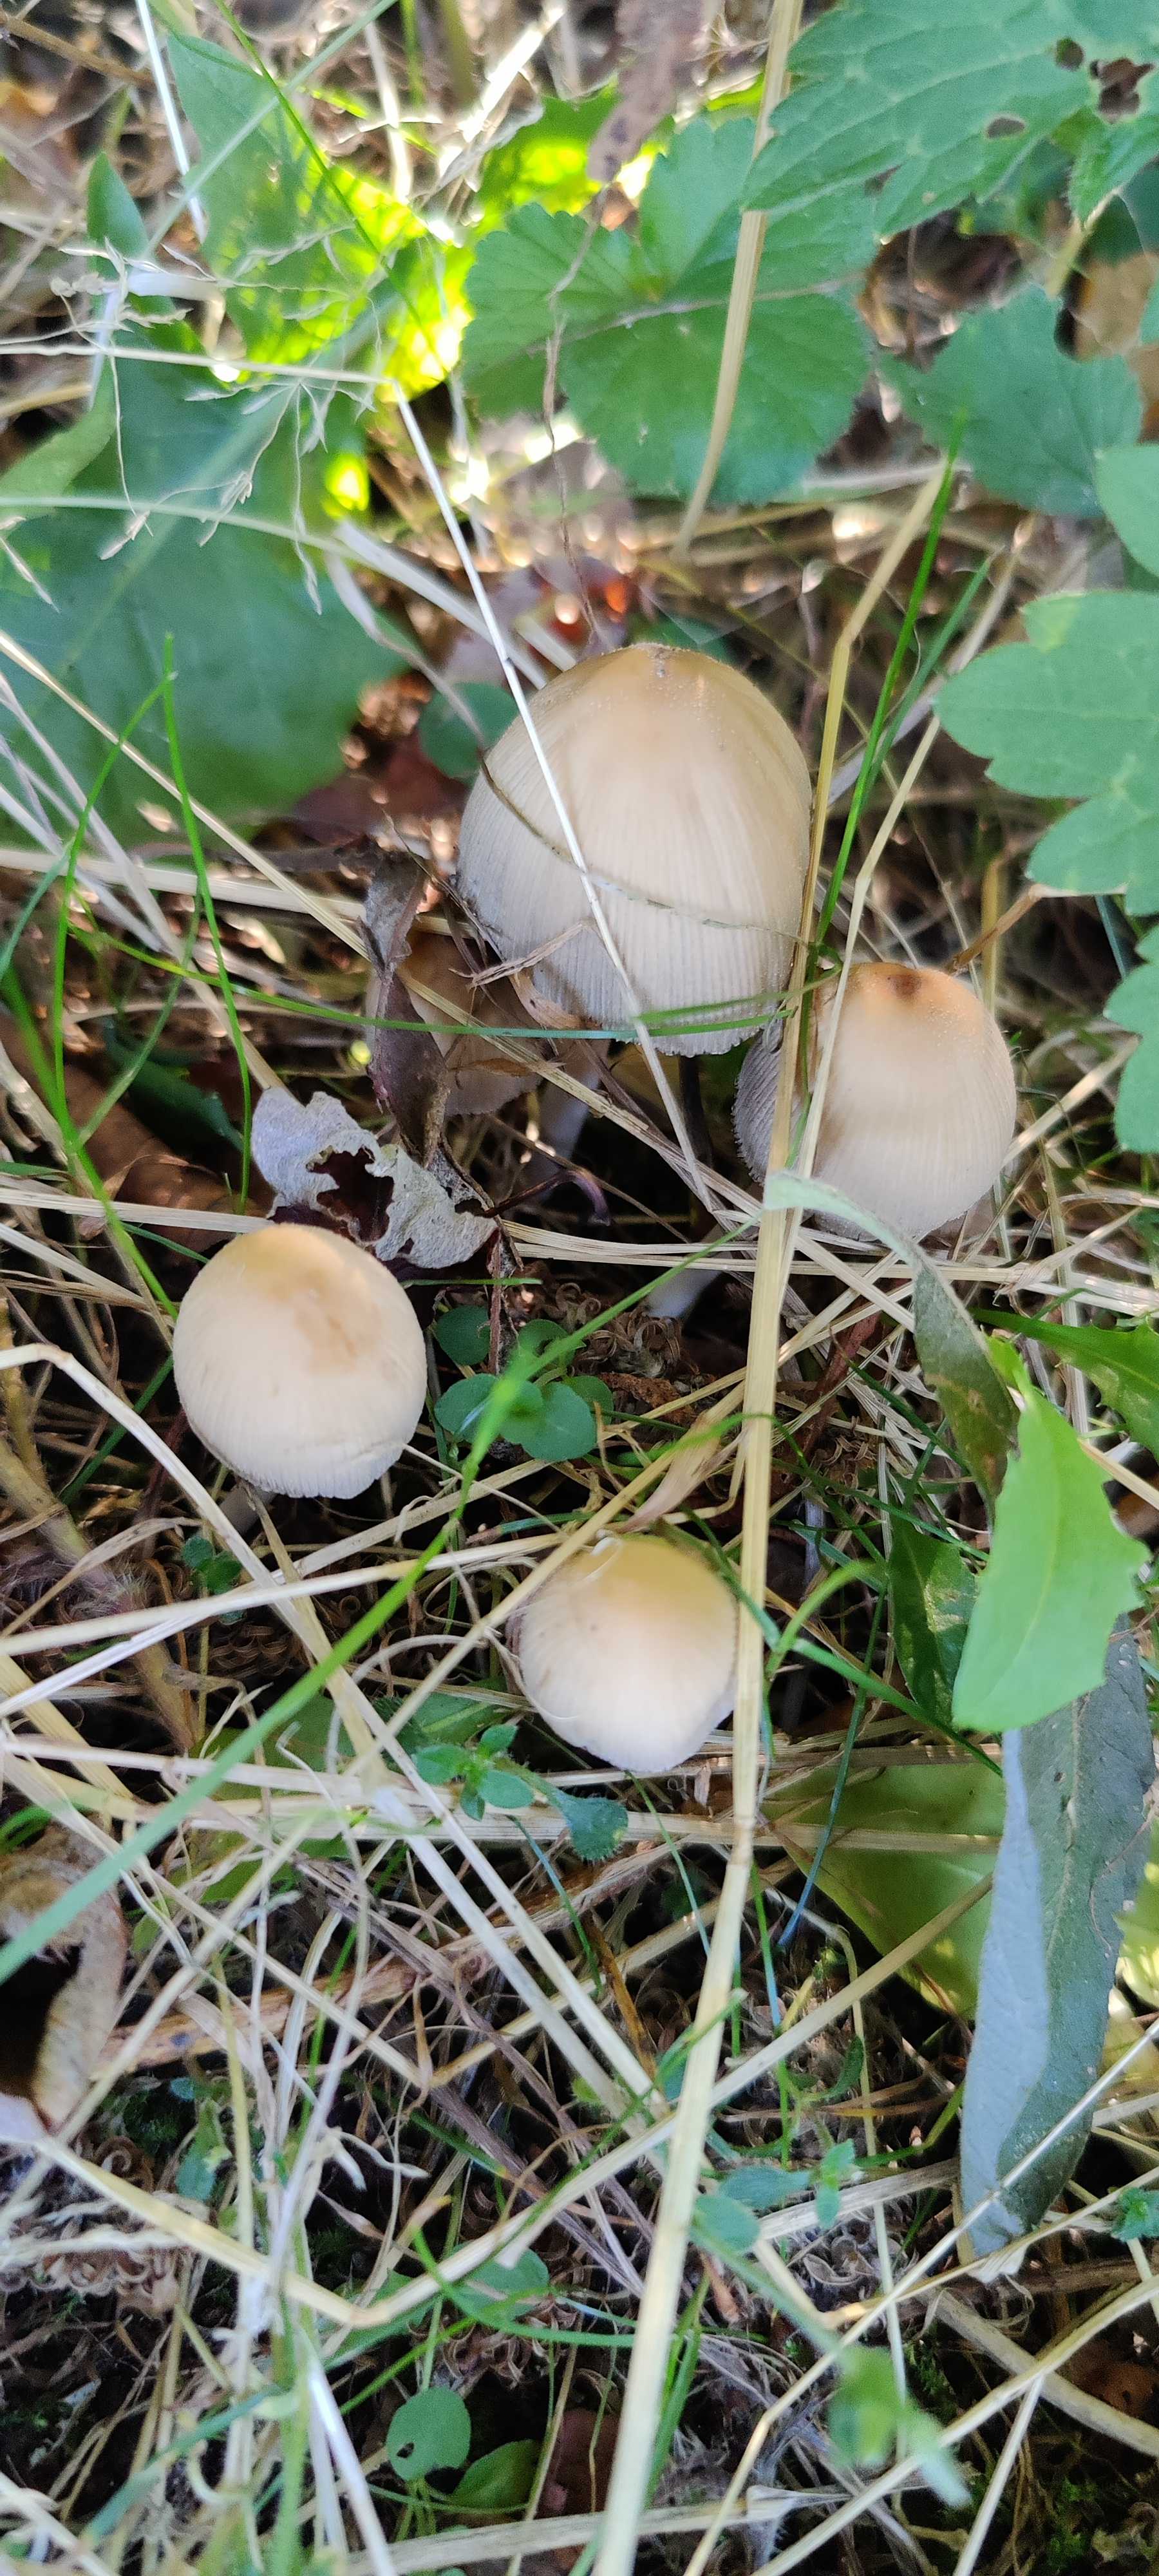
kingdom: Fungi
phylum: Basidiomycota
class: Agaricomycetes
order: Agaricales
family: Psathyrellaceae
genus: Coprinellus
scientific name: Coprinellus
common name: blækhat
